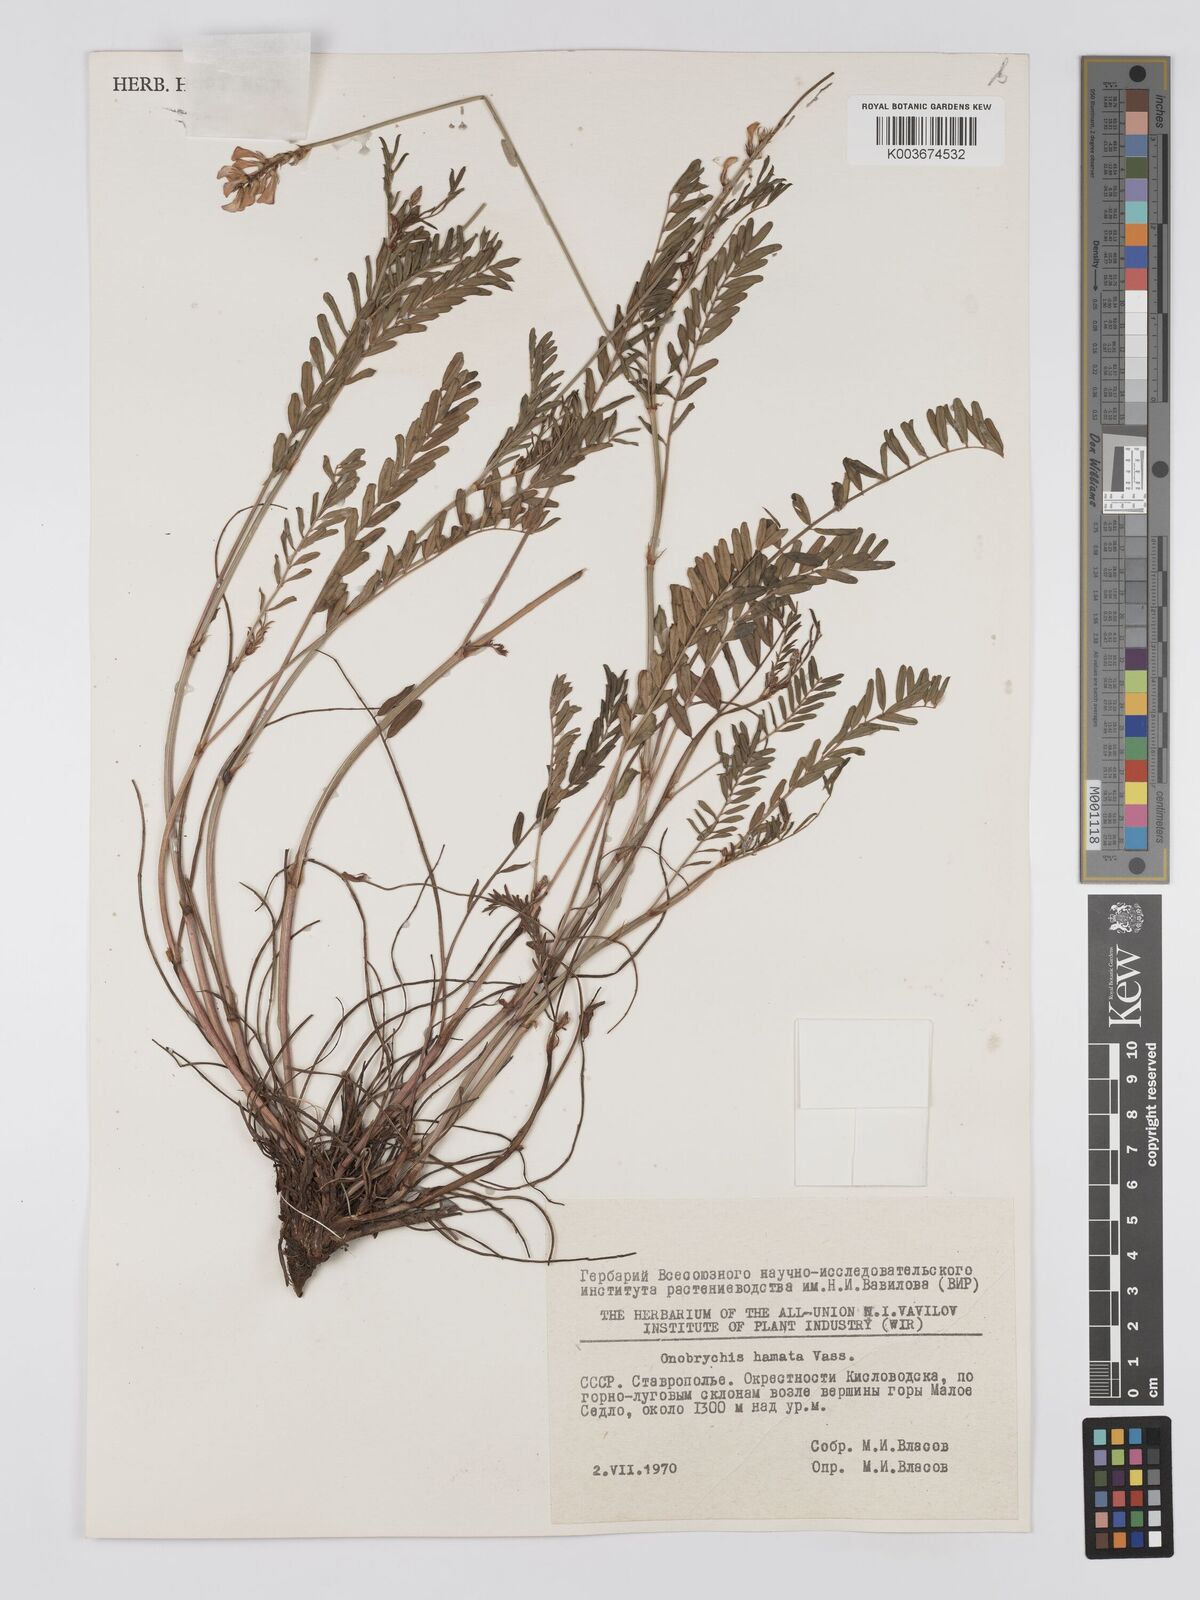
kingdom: Plantae
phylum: Tracheophyta
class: Magnoliopsida
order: Fabales
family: Fabaceae
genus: Onobrychis
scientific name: Onobrychis hamata
